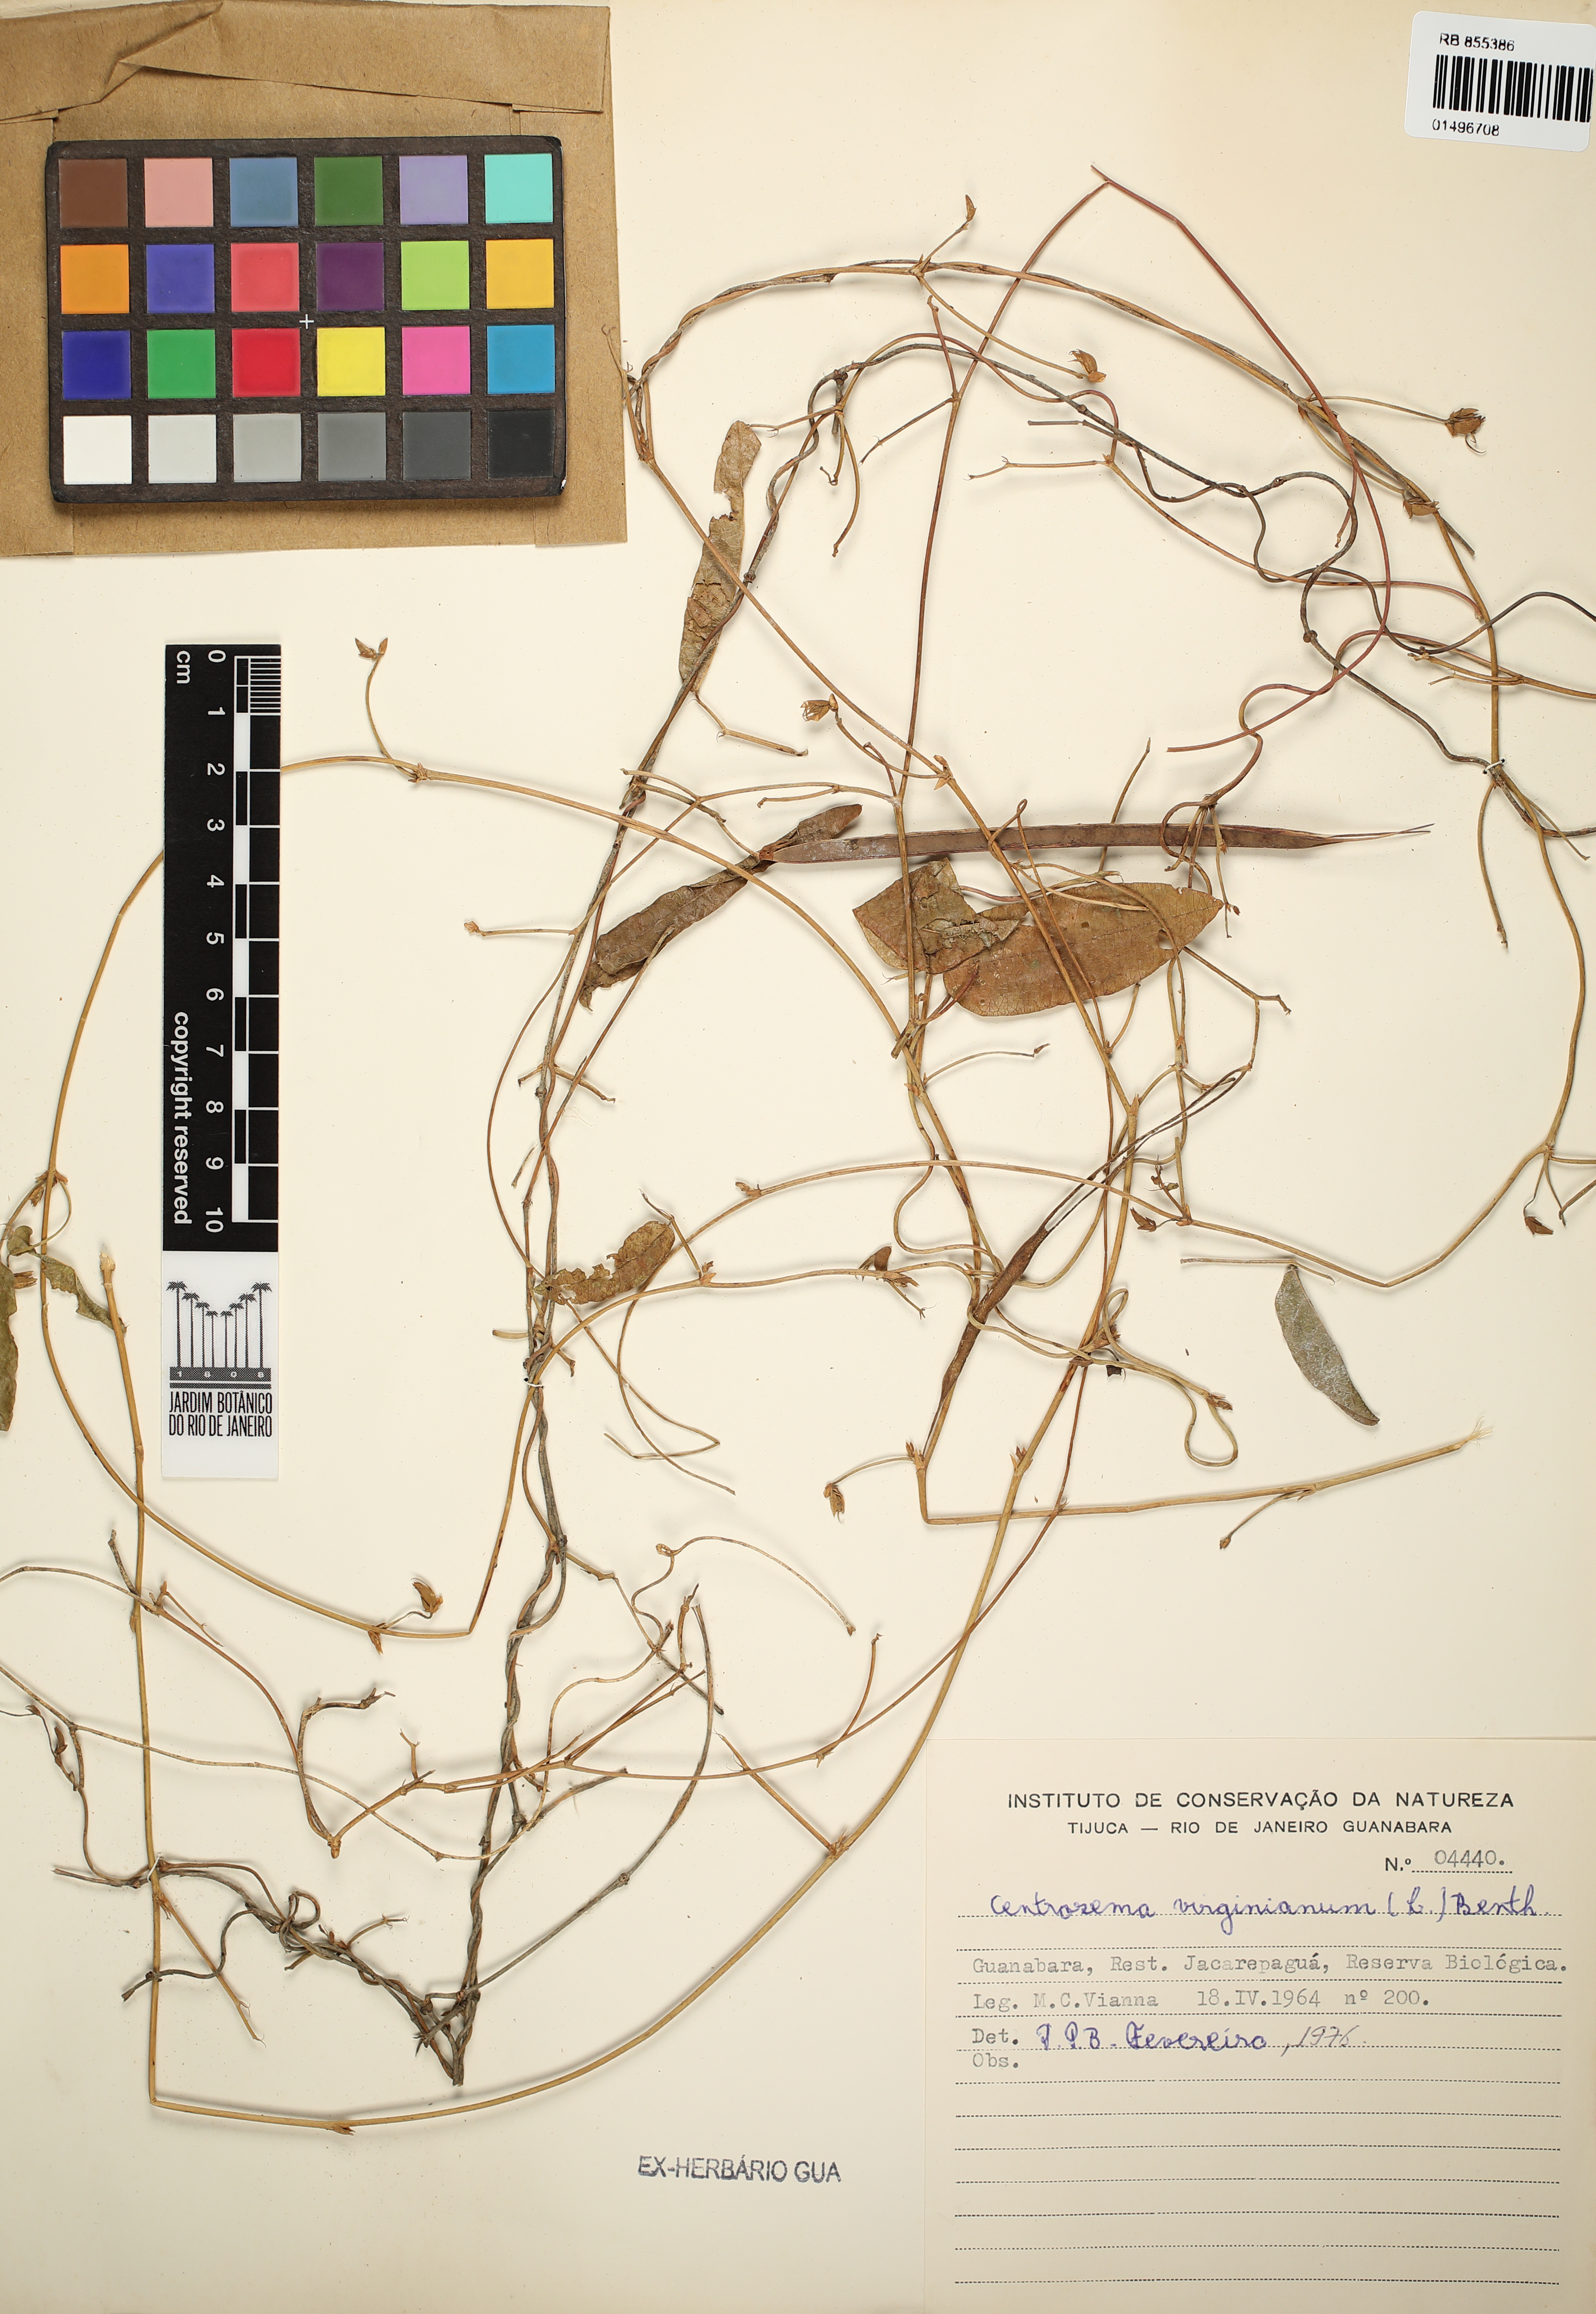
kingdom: Plantae
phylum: Tracheophyta
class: Magnoliopsida
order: Fabales
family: Fabaceae
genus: Centrosema
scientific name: Centrosema virginianum
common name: Butterfly-pea
